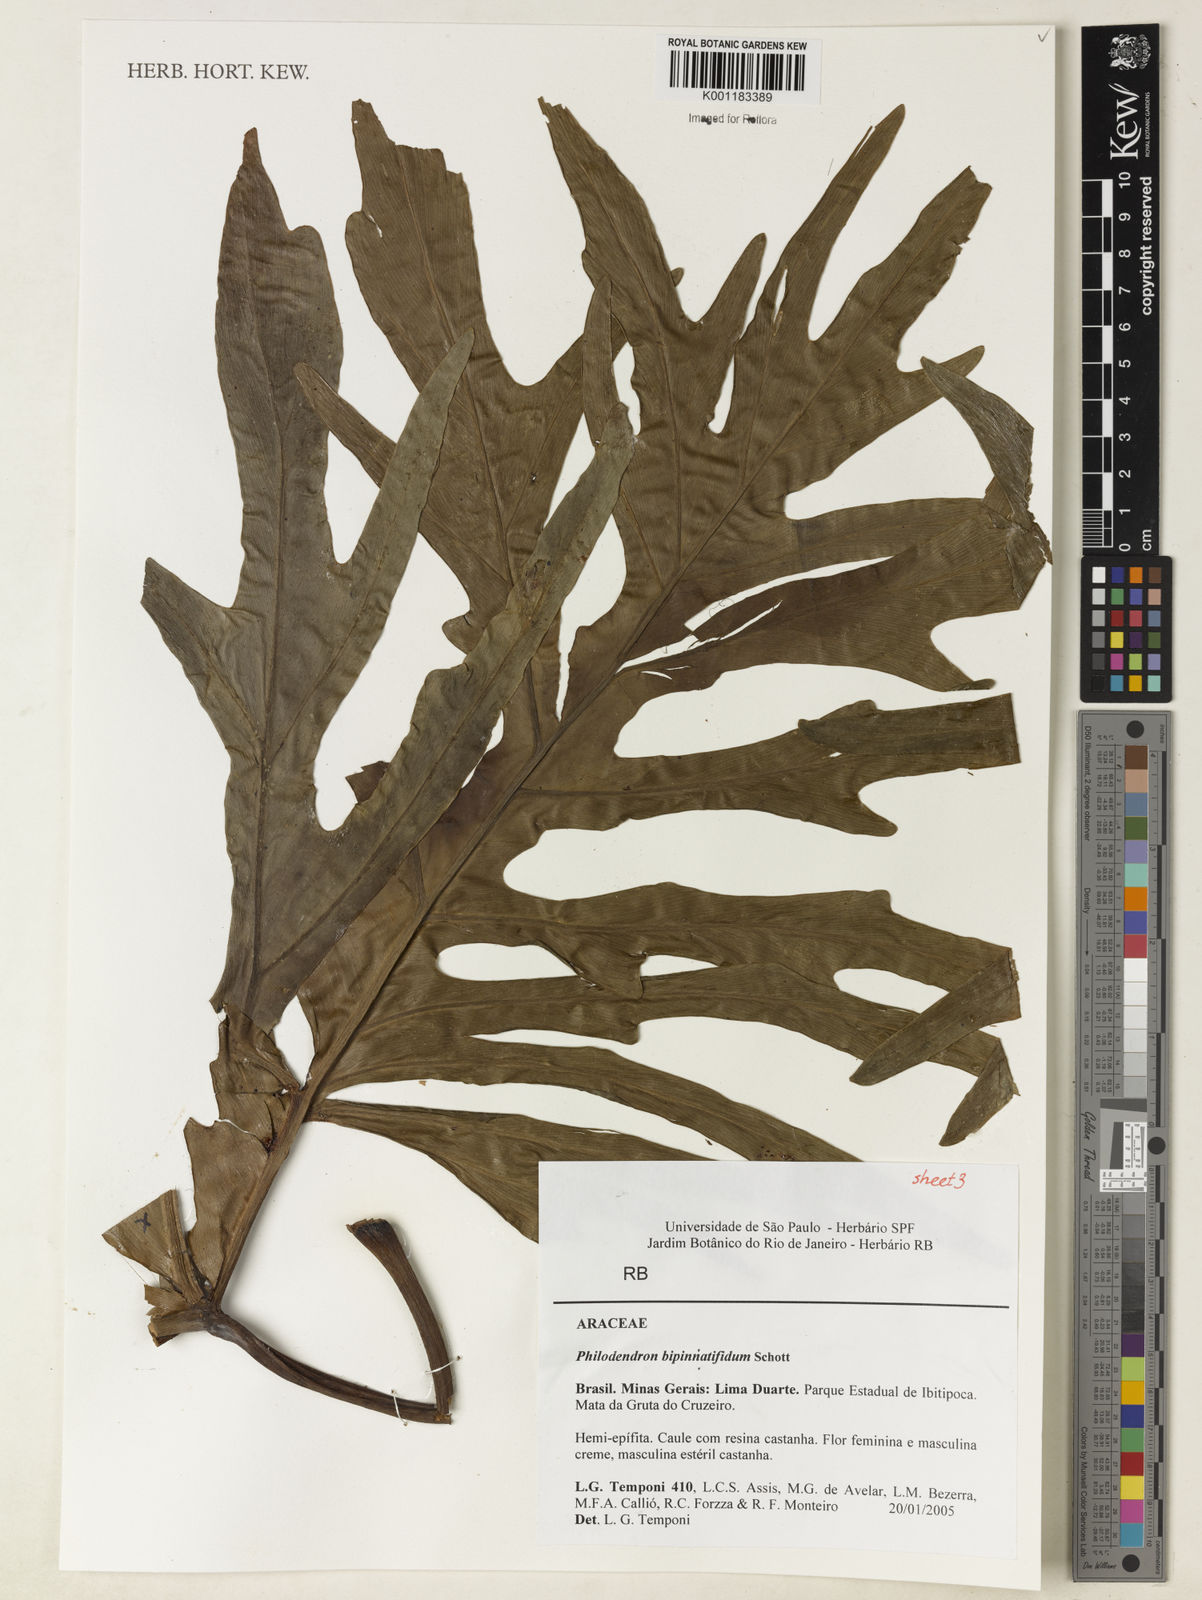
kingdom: Plantae
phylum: Tracheophyta
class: Liliopsida
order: Alismatales
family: Araceae
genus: Philodendron
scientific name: Philodendron
